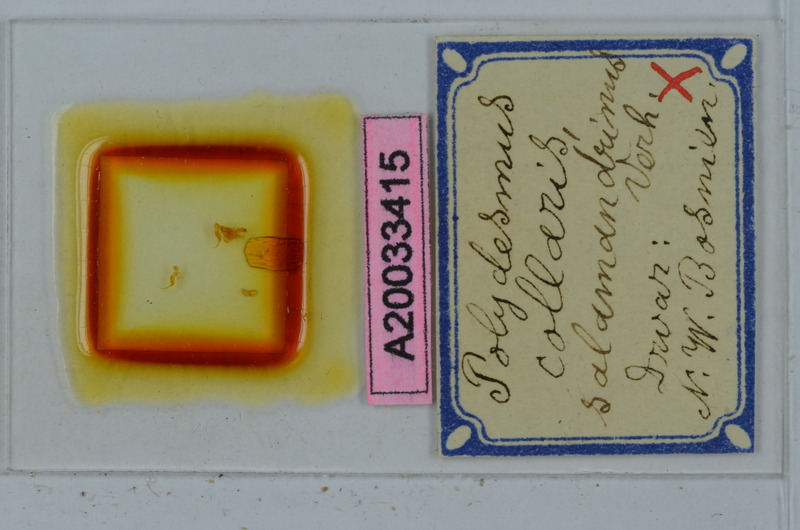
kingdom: Animalia
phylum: Arthropoda
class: Diplopoda
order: Polydesmida
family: Polydesmidae
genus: Polydesmus
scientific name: Polydesmus collaris
